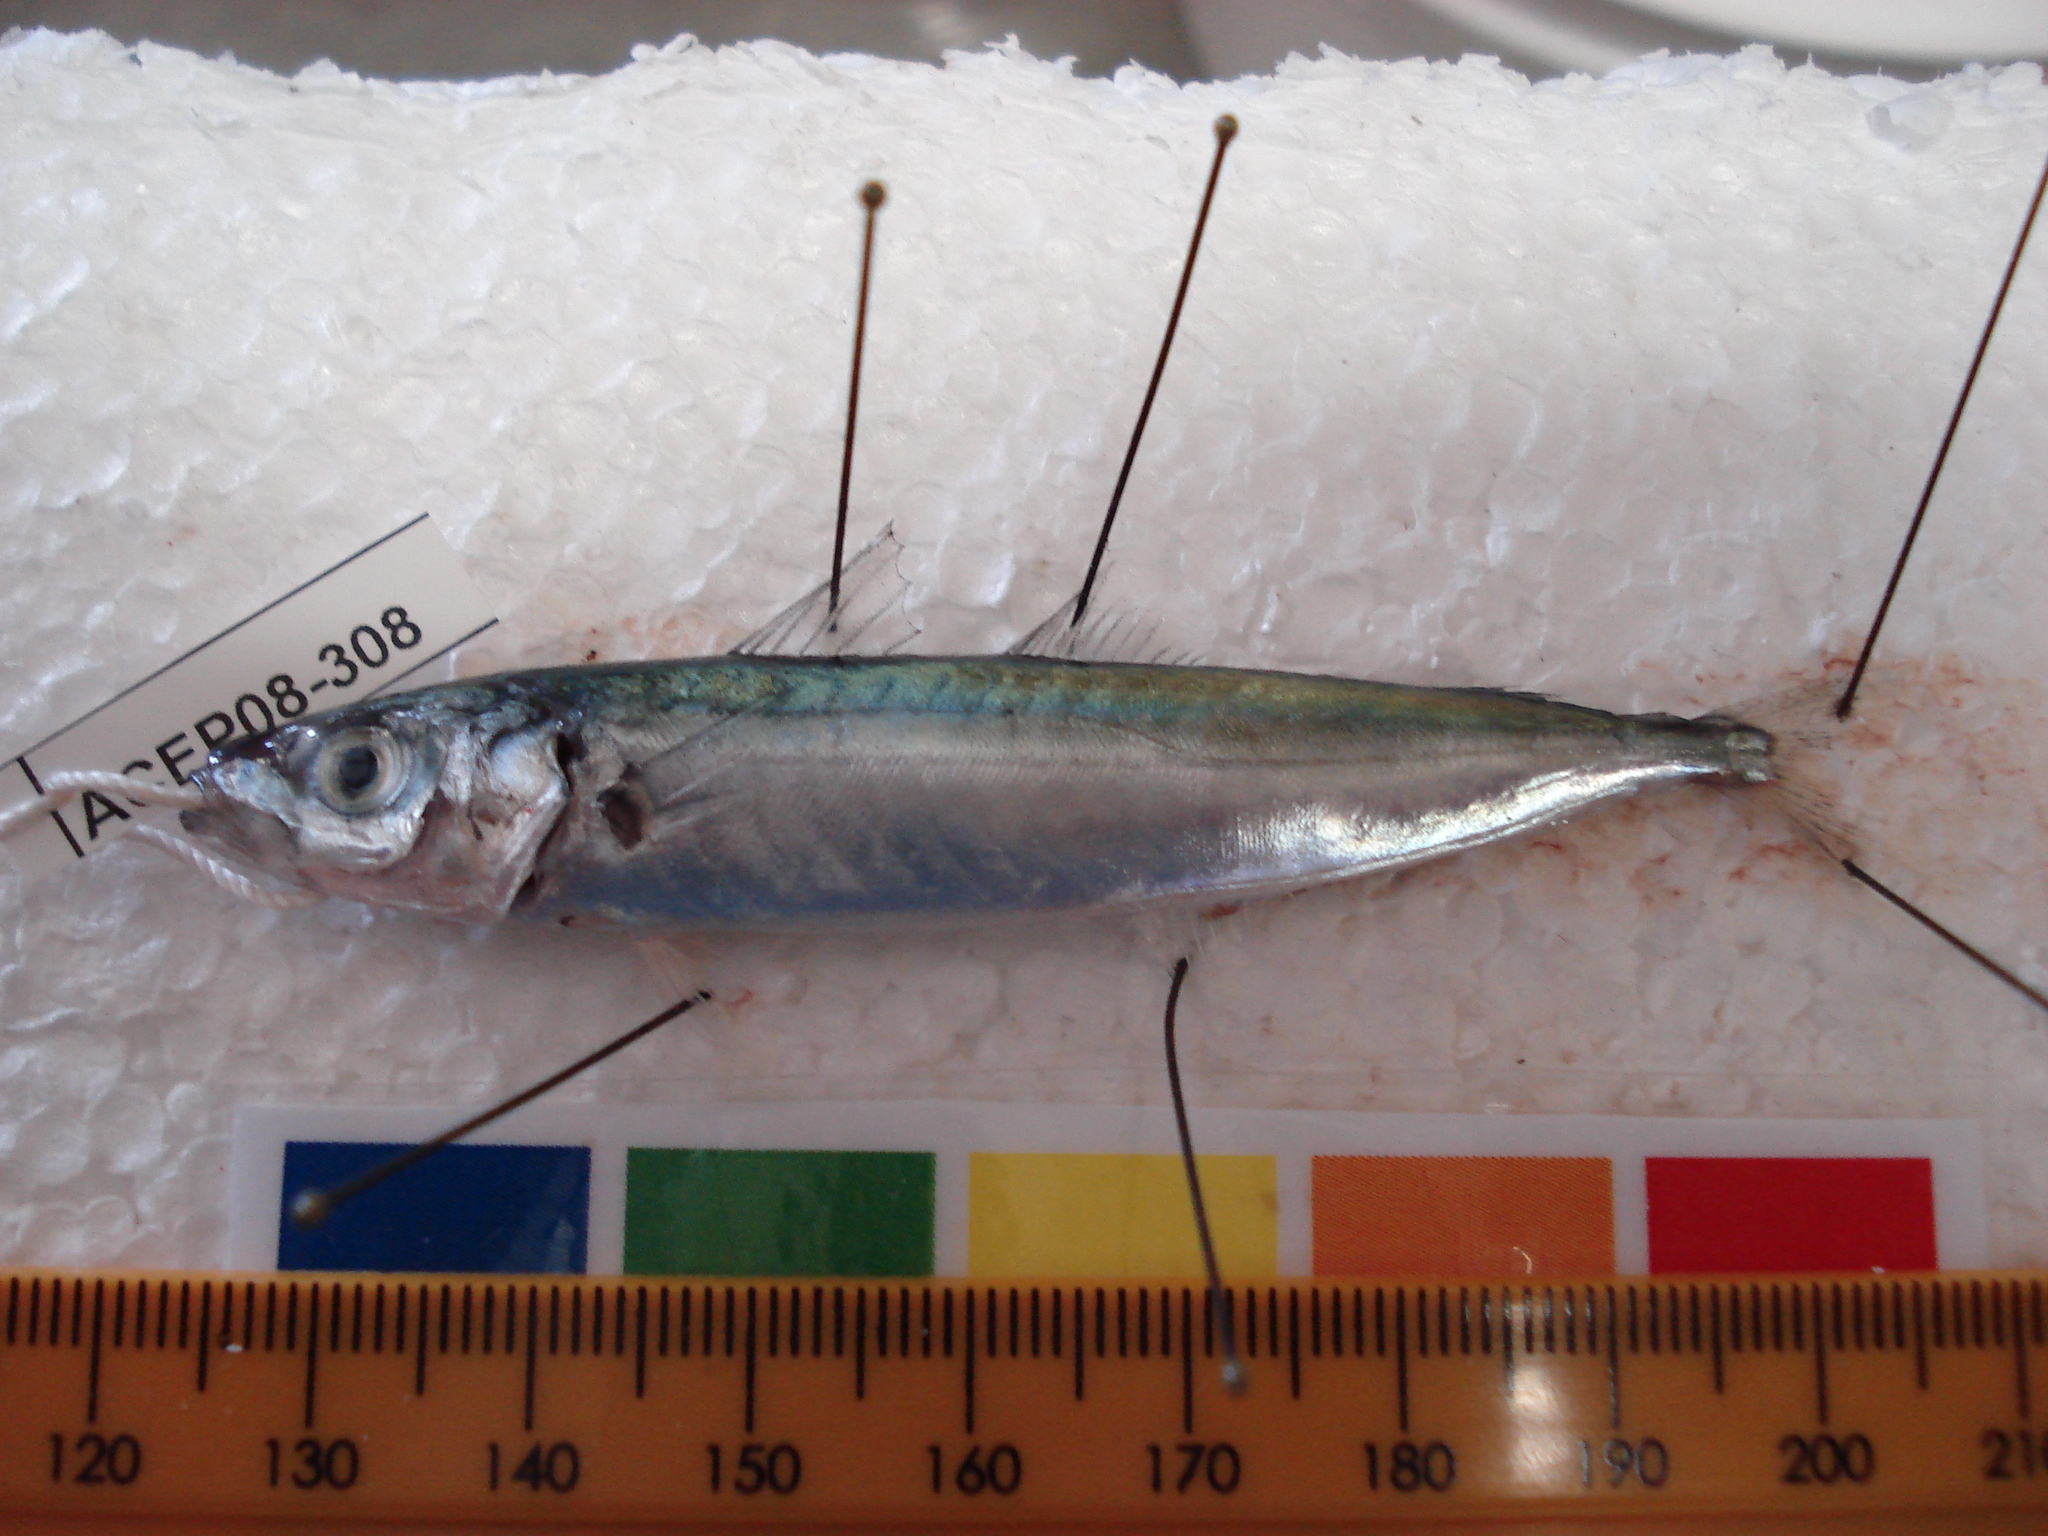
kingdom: Animalia
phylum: Chordata
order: Perciformes
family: Carangidae
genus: Decapterus
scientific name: Decapterus macrosoma
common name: Shortfin scad
